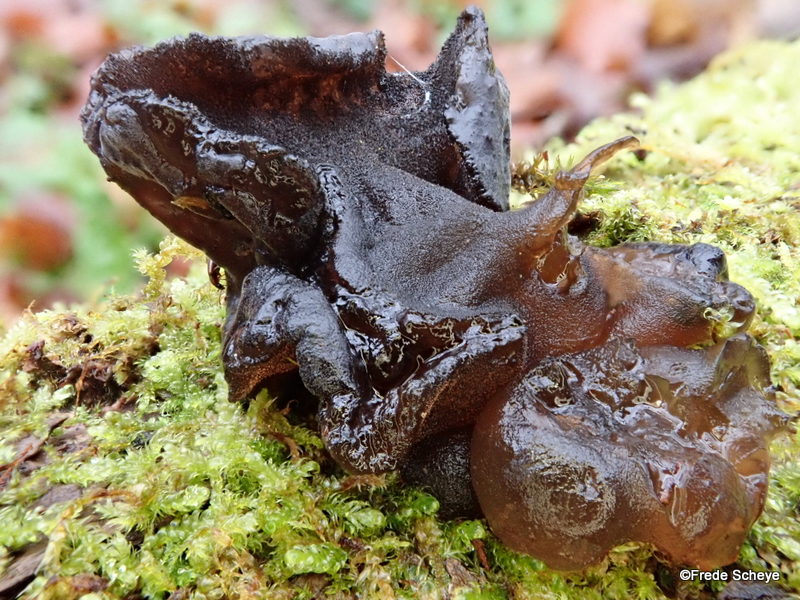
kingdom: Fungi
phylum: Basidiomycota
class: Agaricomycetes
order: Auriculariales
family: Auriculariaceae
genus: Exidia
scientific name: Exidia glandulosa
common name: ege-bævretop
